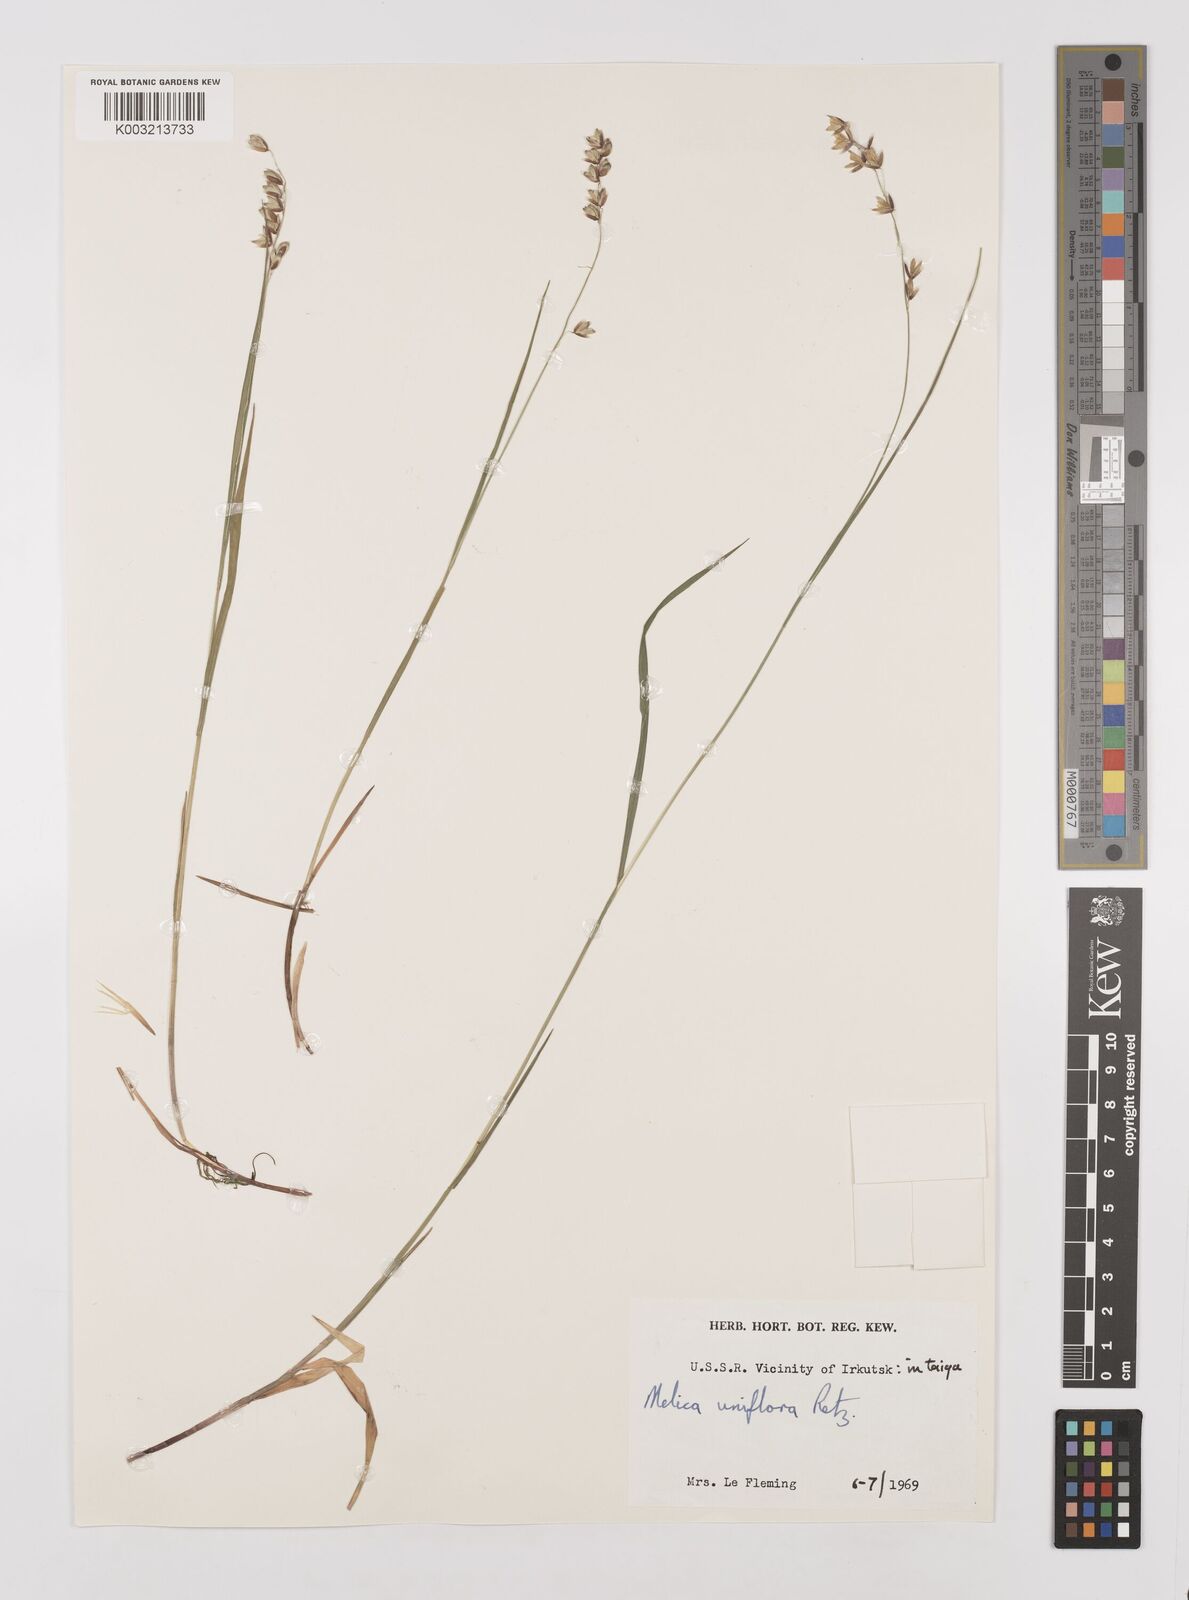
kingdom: Plantae
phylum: Tracheophyta
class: Liliopsida
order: Poales
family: Poaceae
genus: Melica
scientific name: Melica
